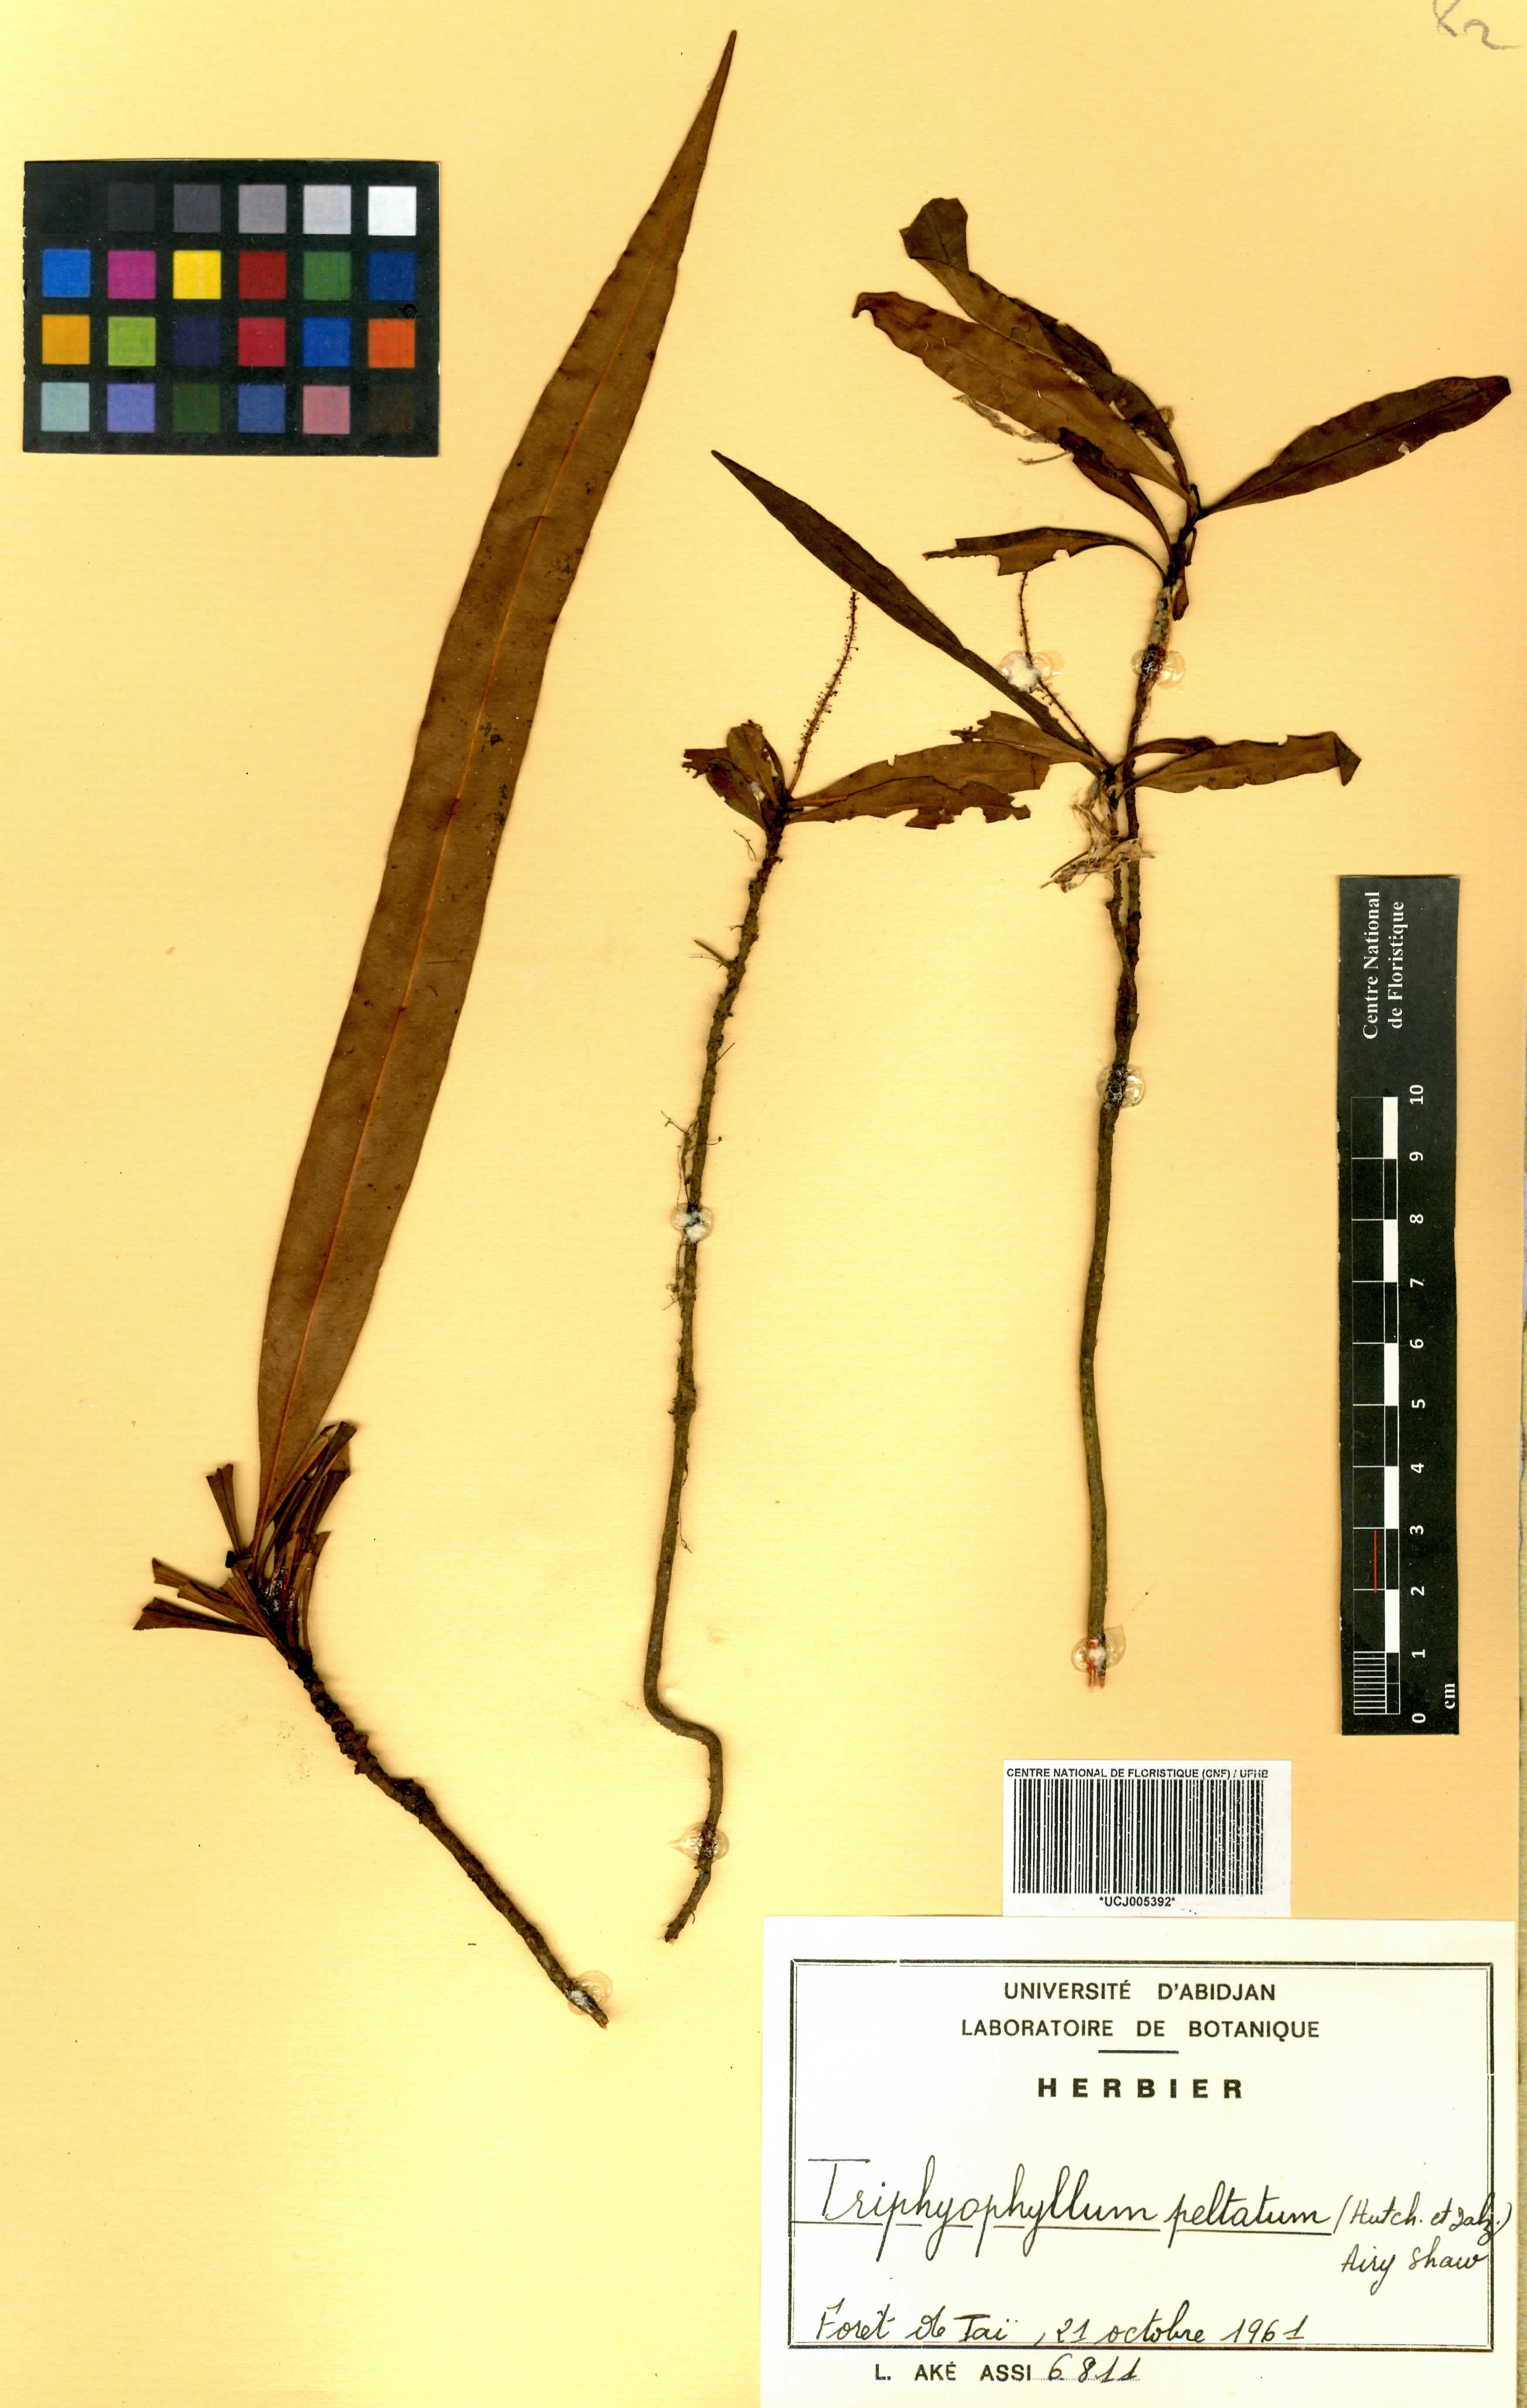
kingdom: Plantae
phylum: Tracheophyta
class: Magnoliopsida
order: Caryophyllales
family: Dioncophyllaceae
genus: Triphyophyllum
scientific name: Triphyophyllum peltatum
